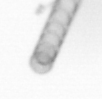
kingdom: Chromista
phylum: Ochrophyta
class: Bacillariophyceae
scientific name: Bacillariophyceae
